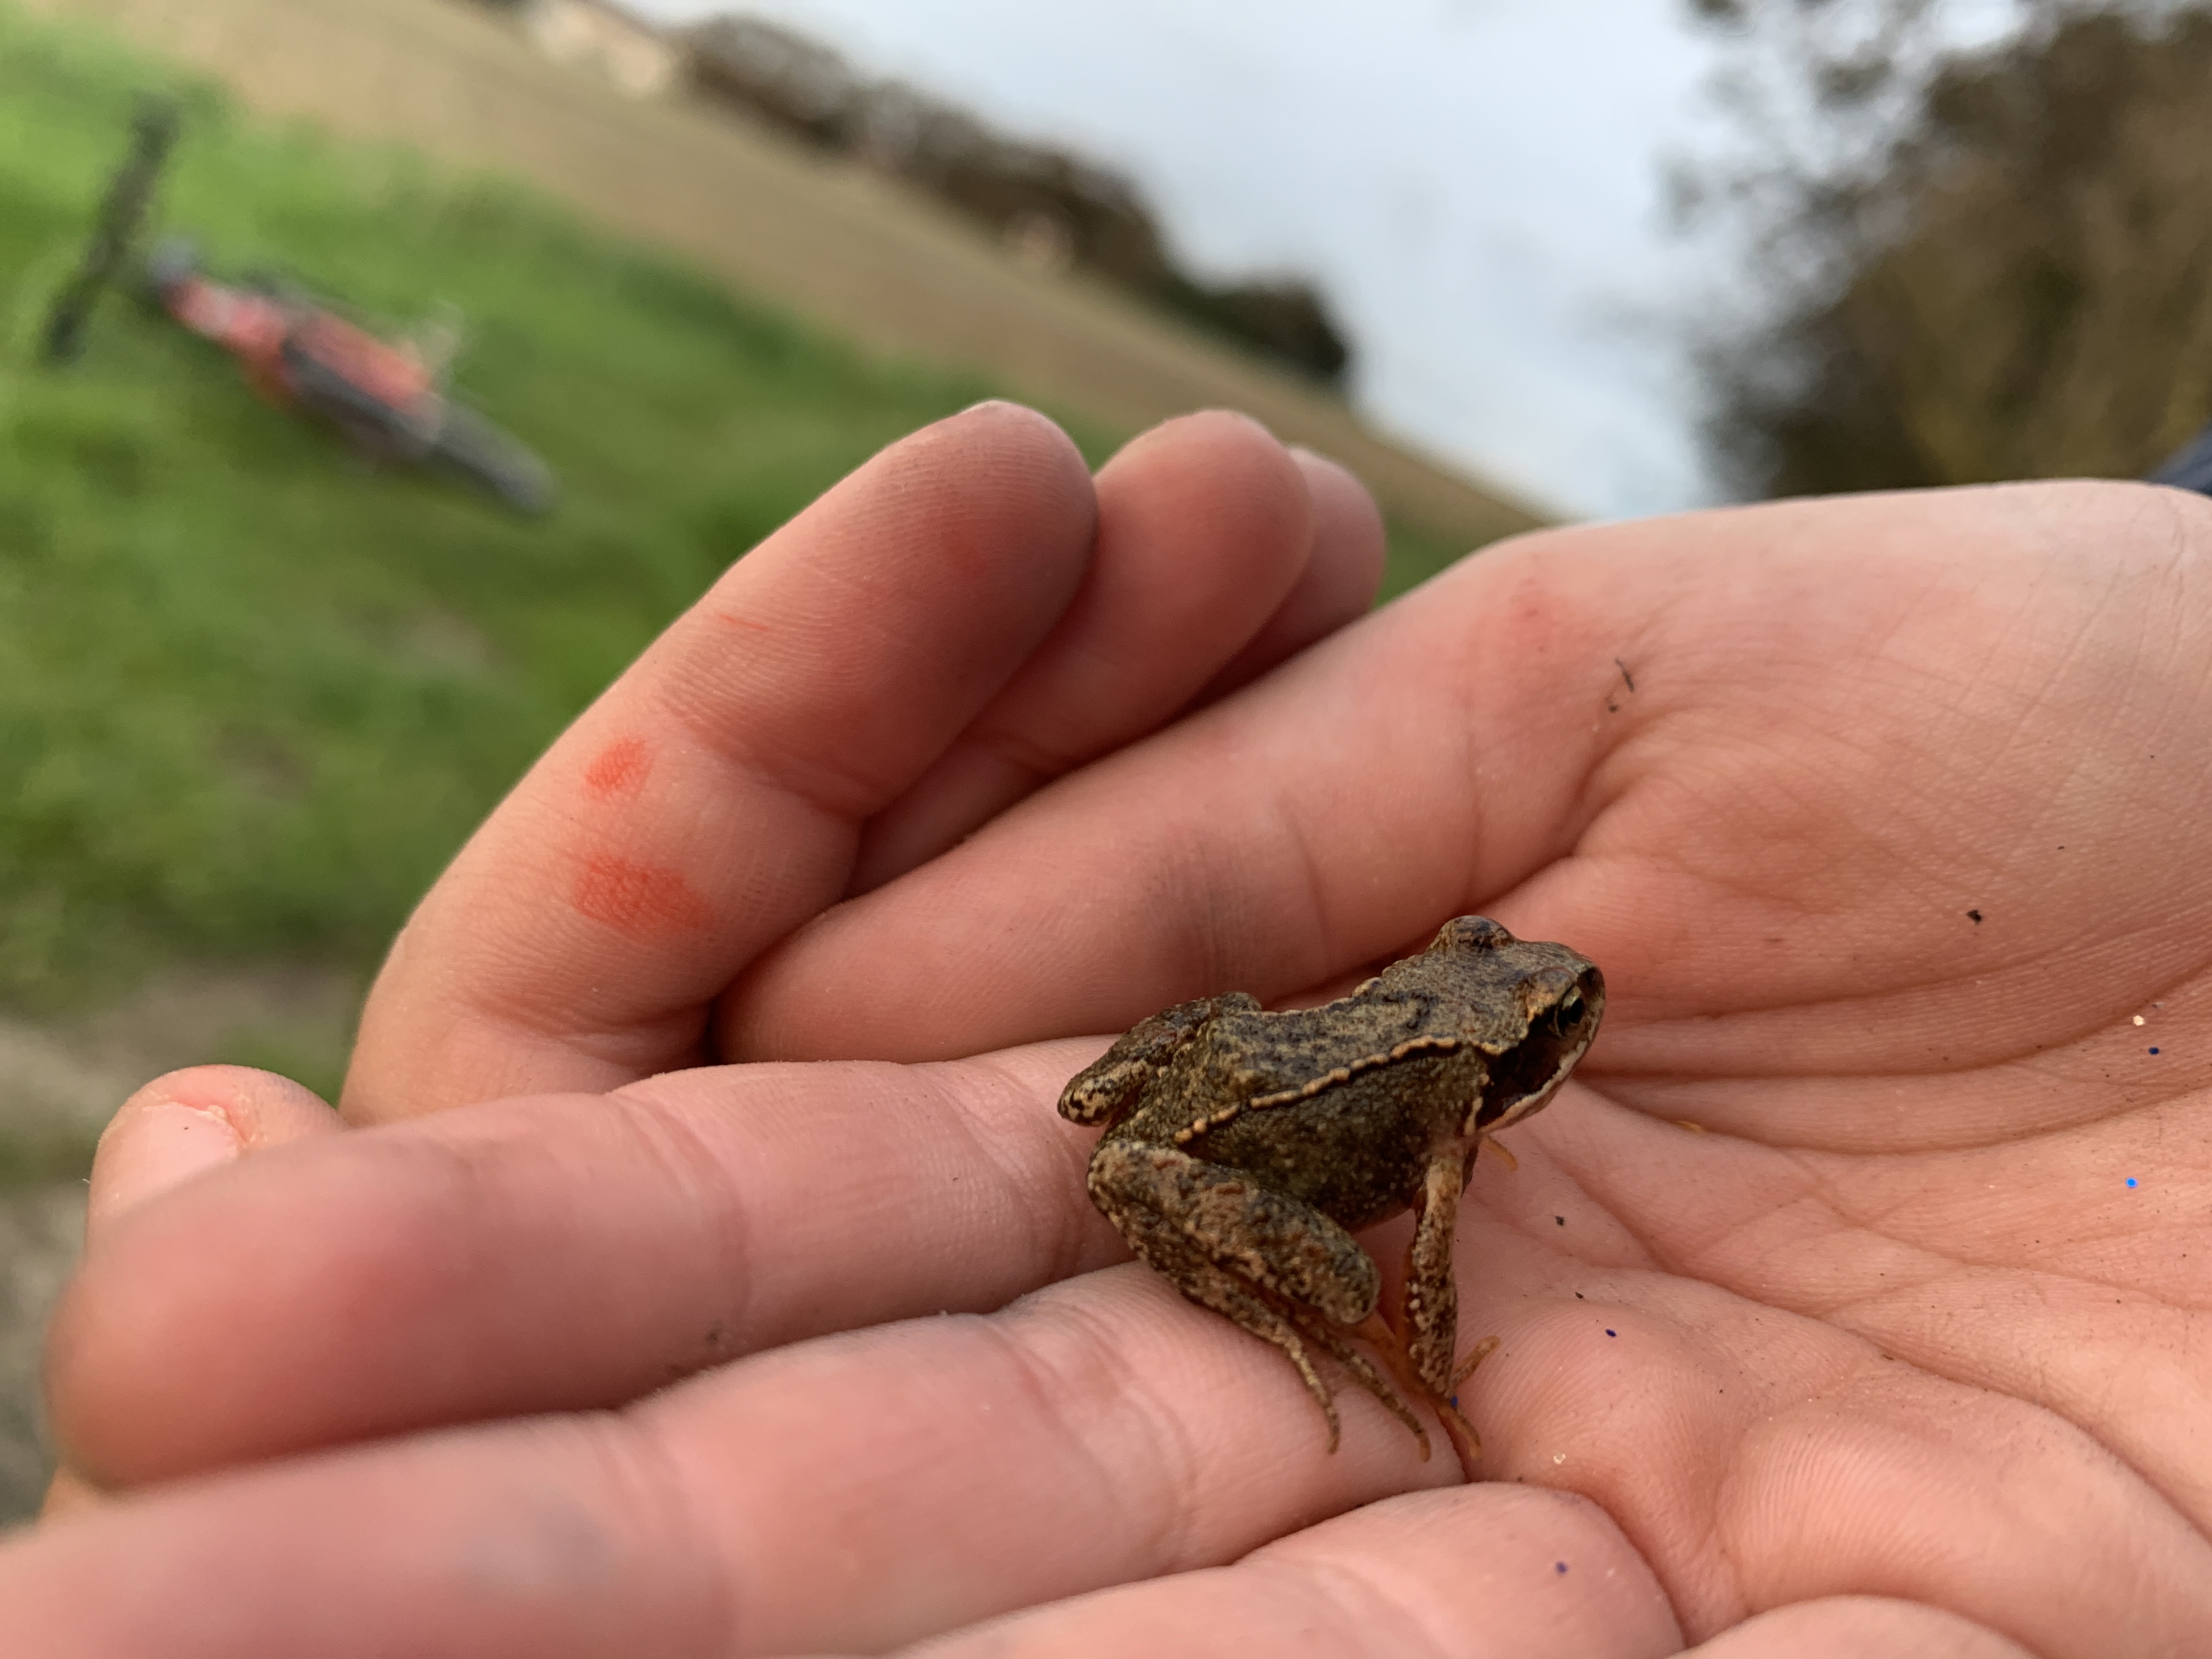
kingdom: Animalia
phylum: Chordata
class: Amphibia
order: Anura
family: Ranidae
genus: Rana
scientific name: Rana temporaria
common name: Butsnudet frø
